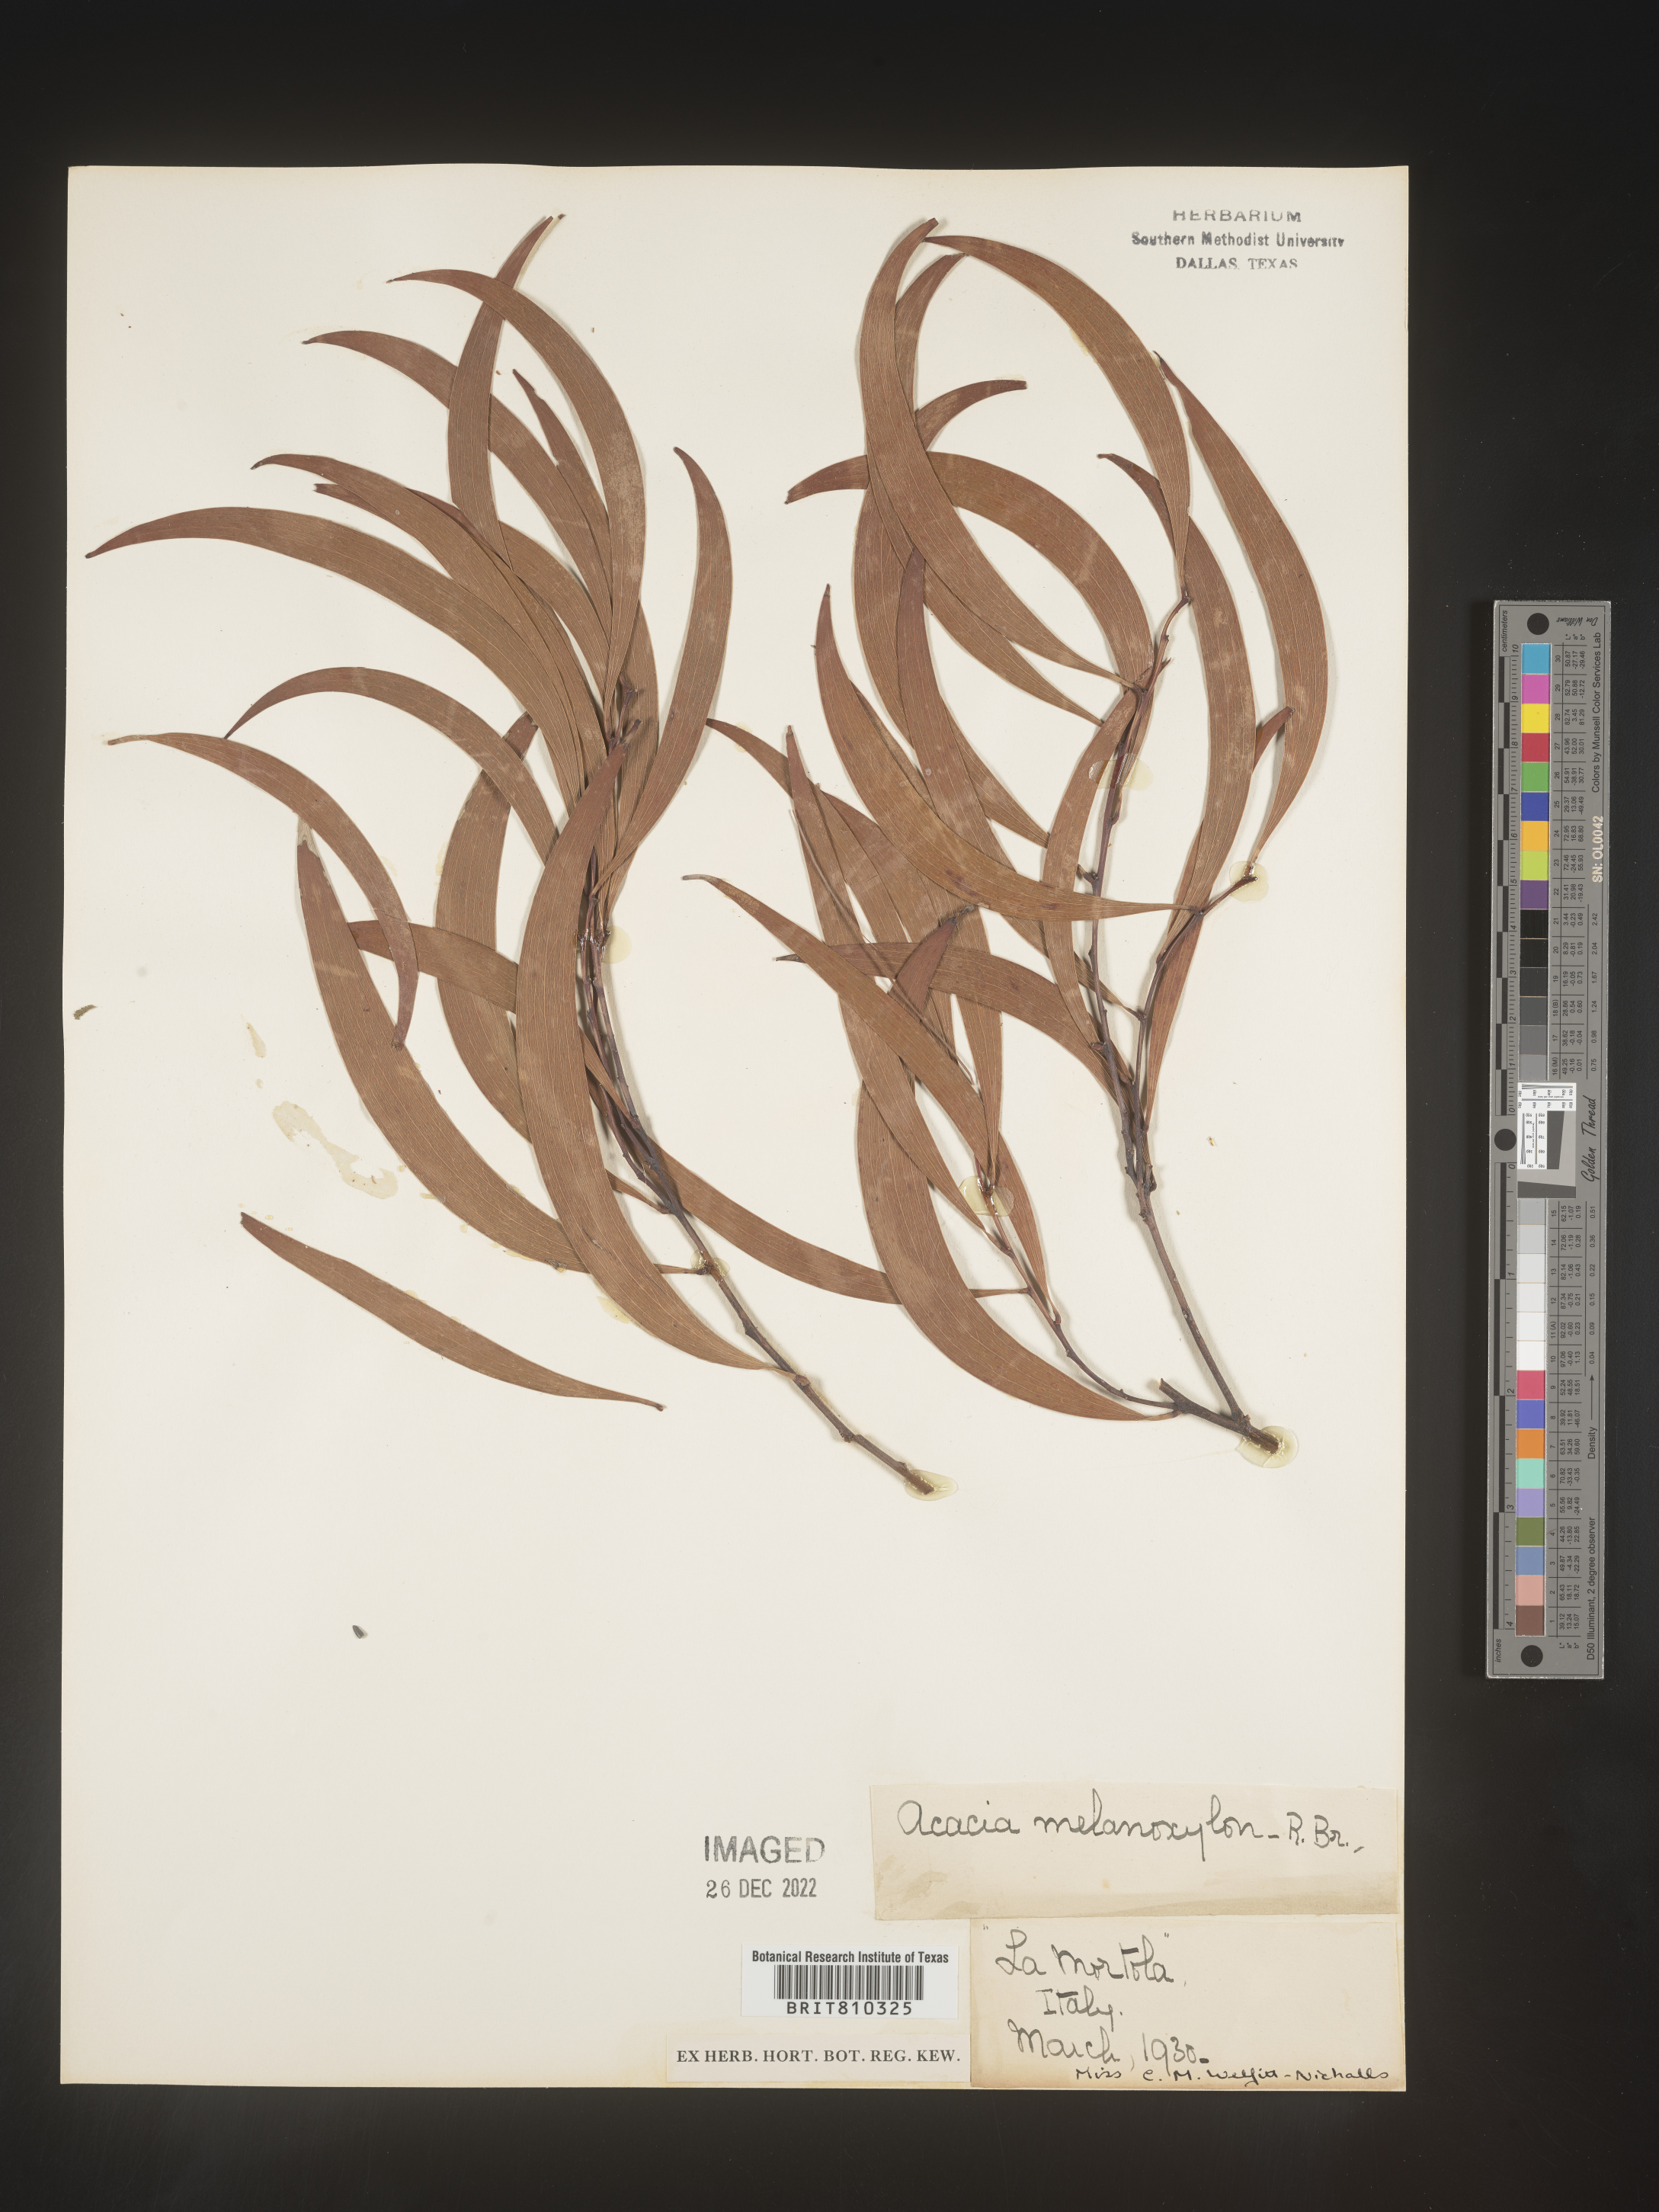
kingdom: Plantae
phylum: Tracheophyta
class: Magnoliopsida
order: Fabales
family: Fabaceae
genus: Acacia
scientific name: Acacia
